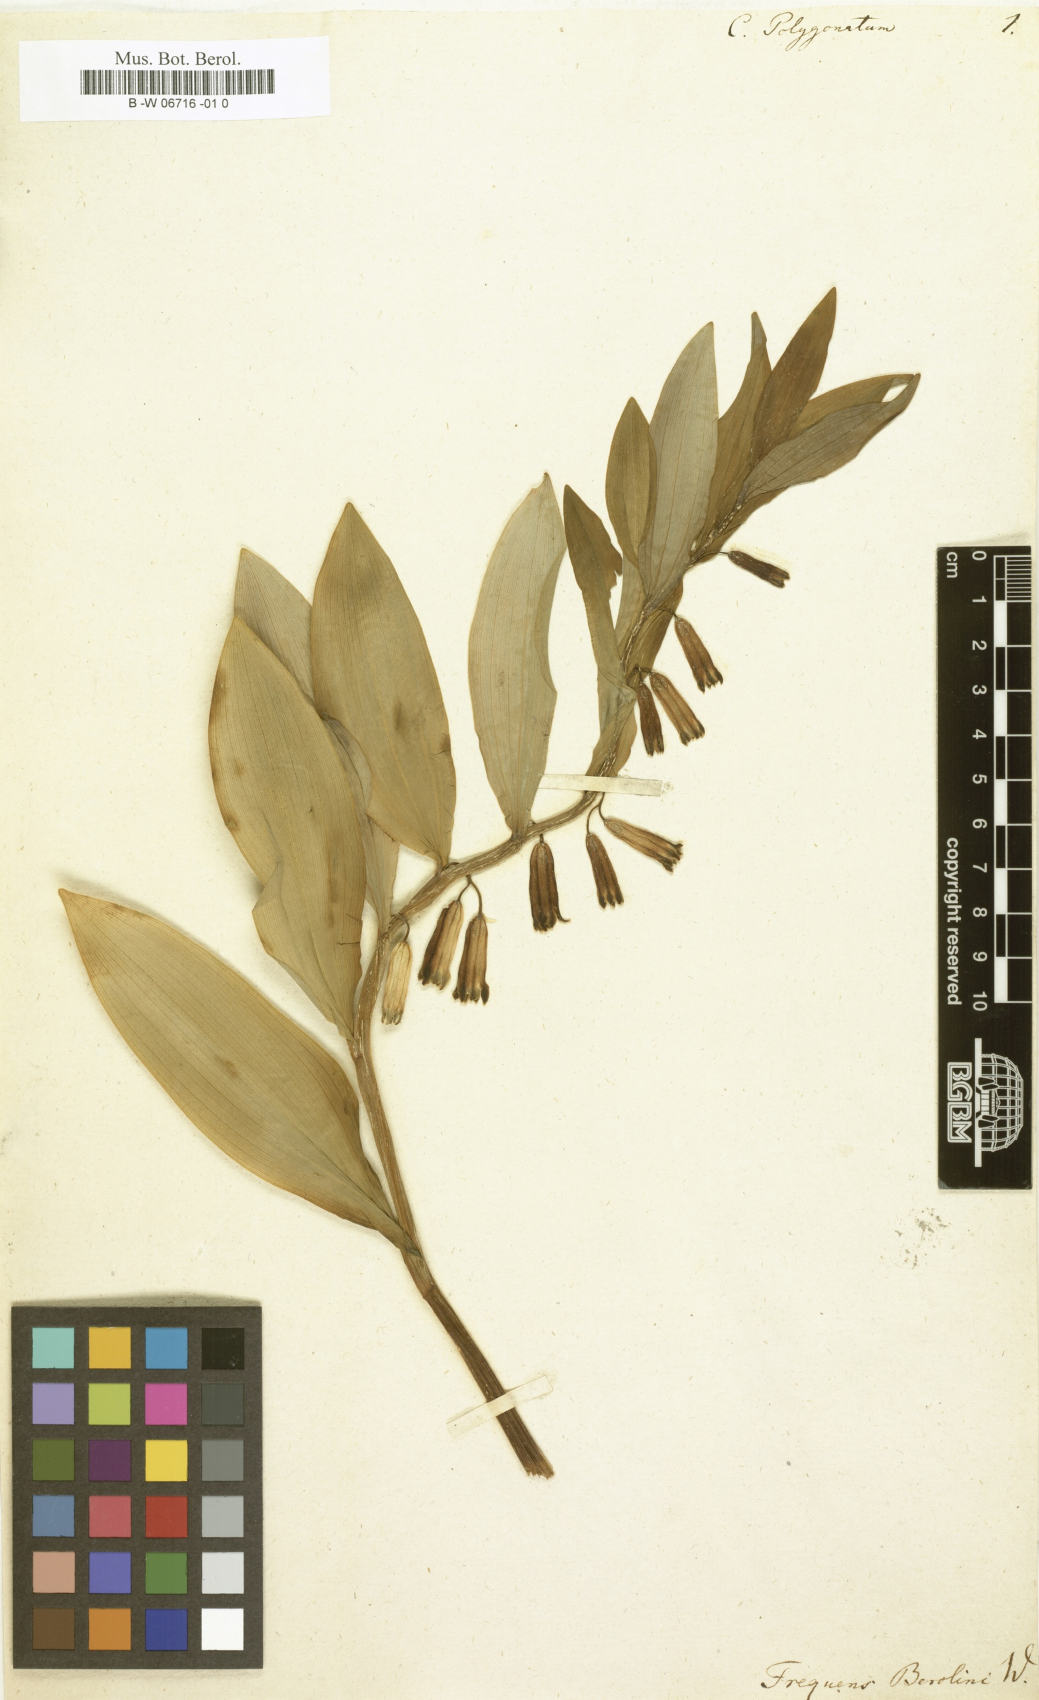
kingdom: Plantae
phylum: Tracheophyta
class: Liliopsida
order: Asparagales
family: Asparagaceae
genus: Convallaria
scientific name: Convallaria polygonatum
